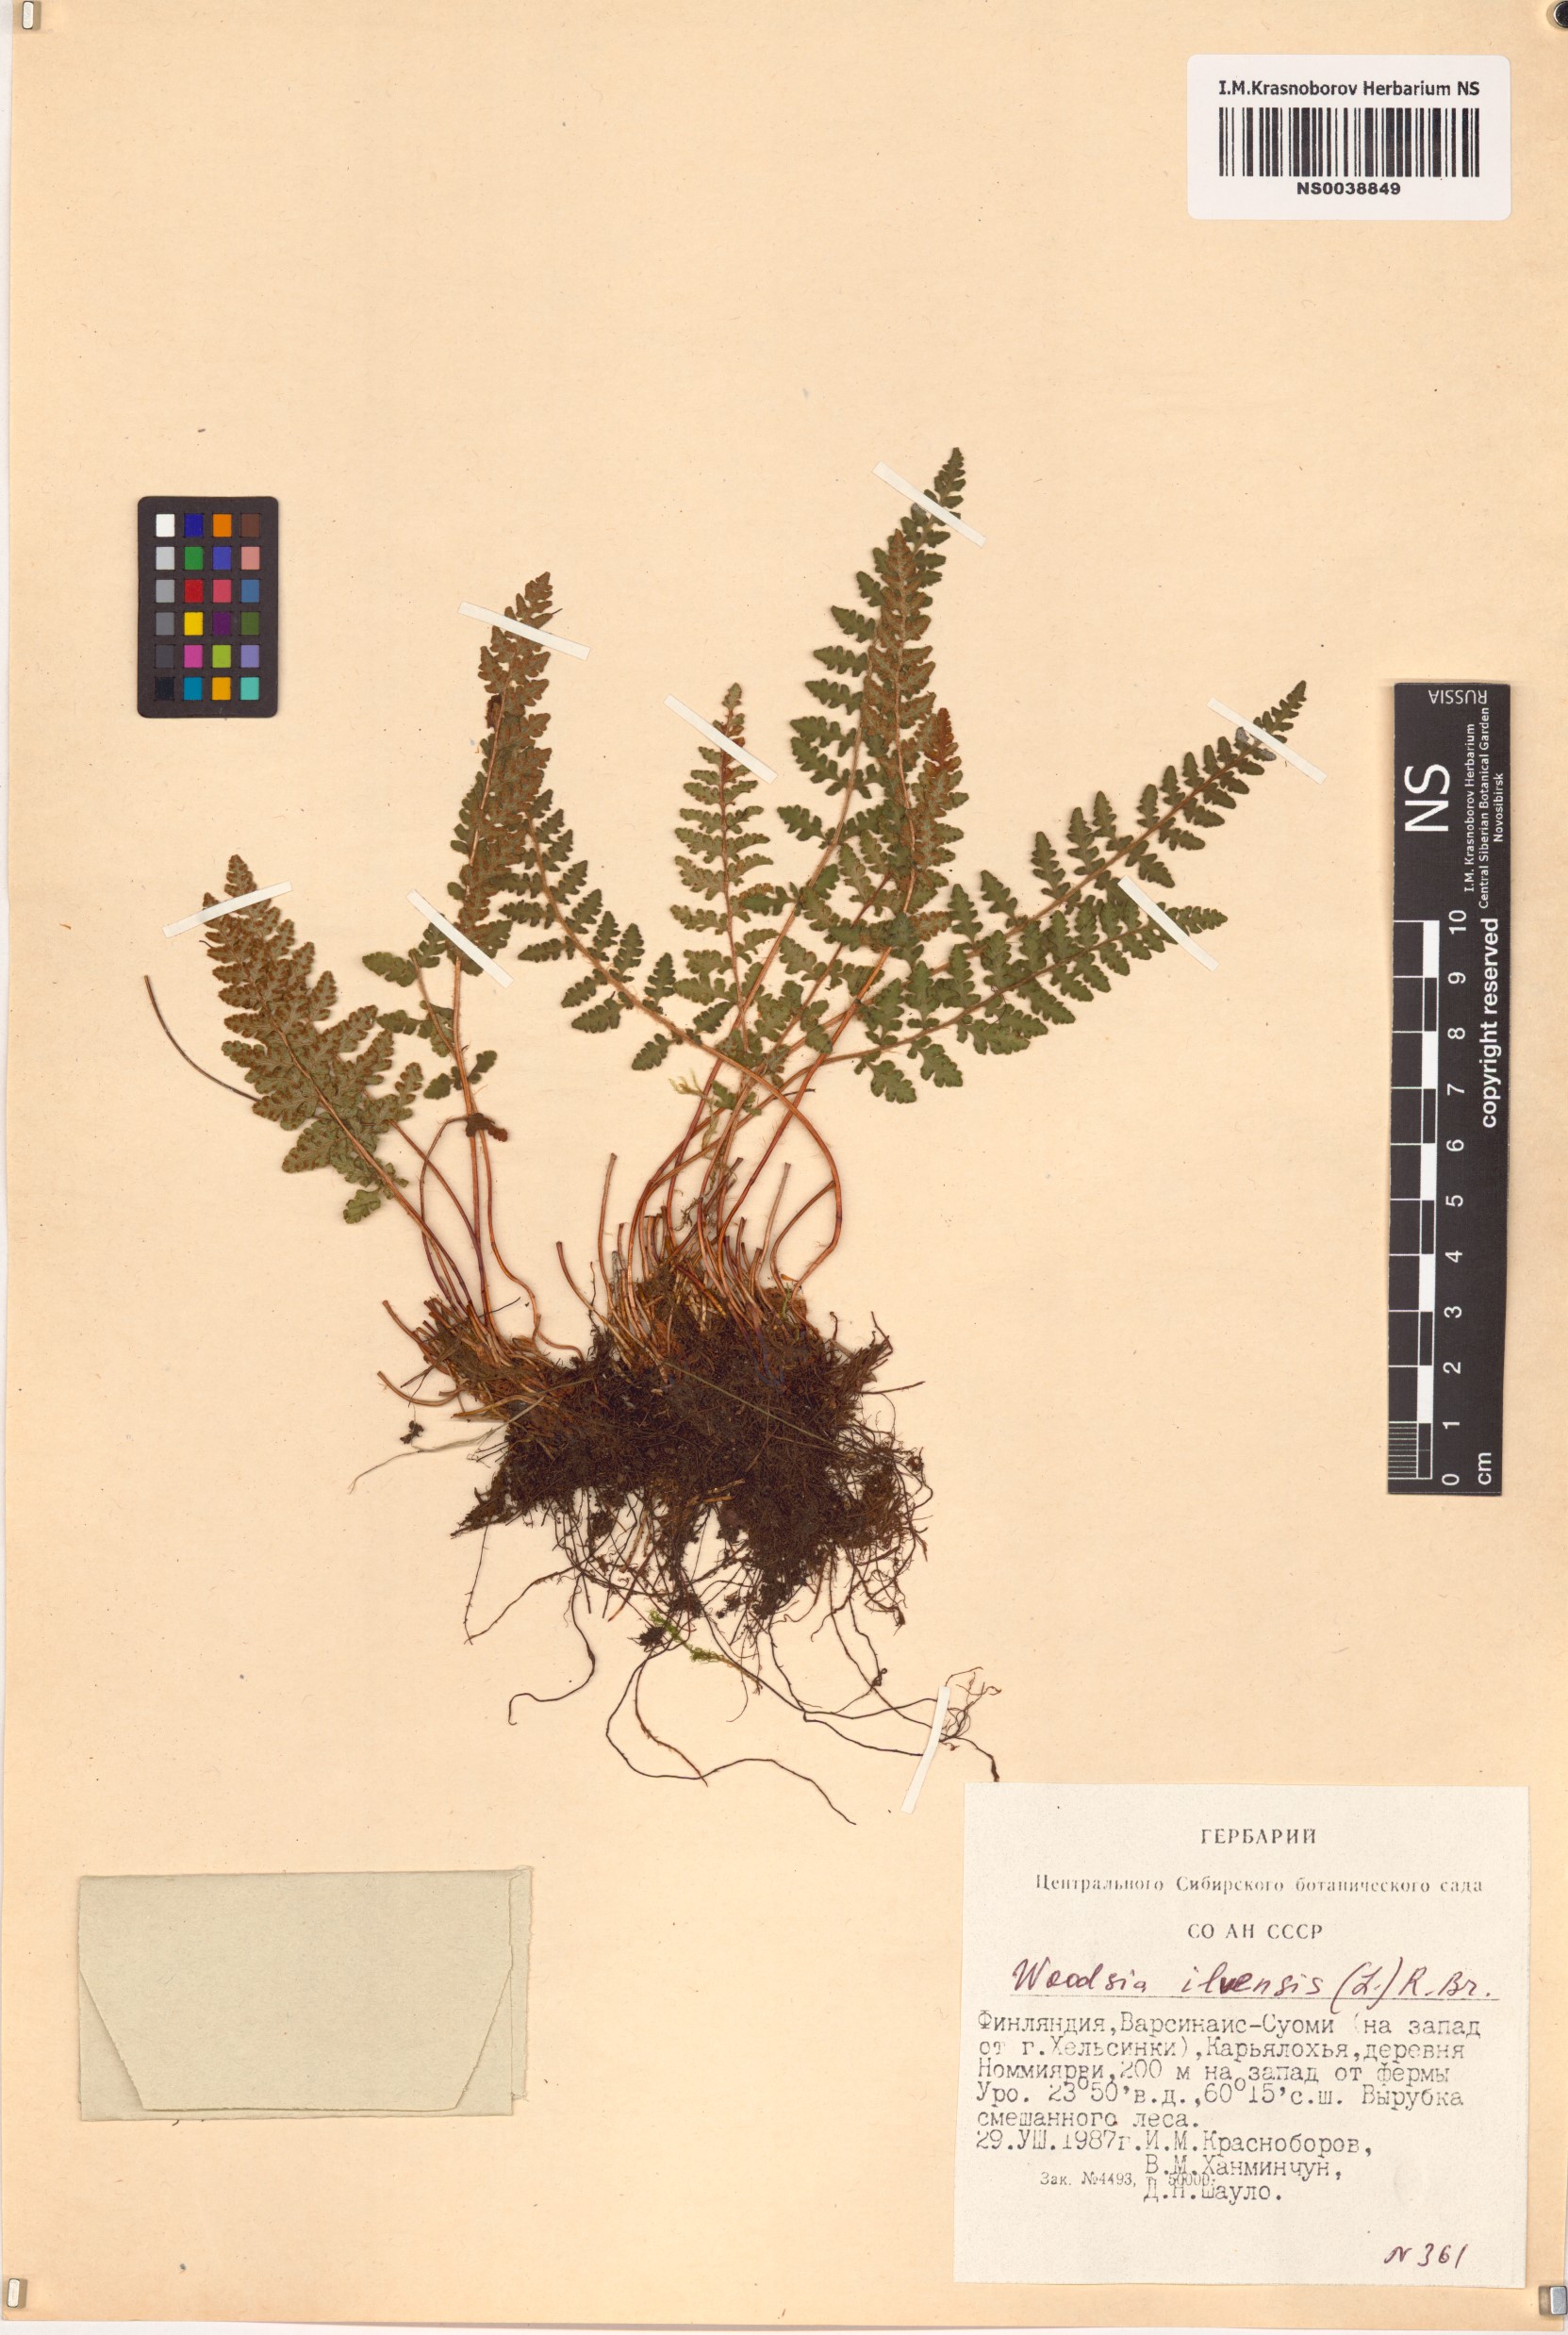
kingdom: Plantae
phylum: Tracheophyta
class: Polypodiopsida
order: Polypodiales
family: Woodsiaceae
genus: Woodsia
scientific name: Woodsia ilvensis
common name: Fragrant woodsia
